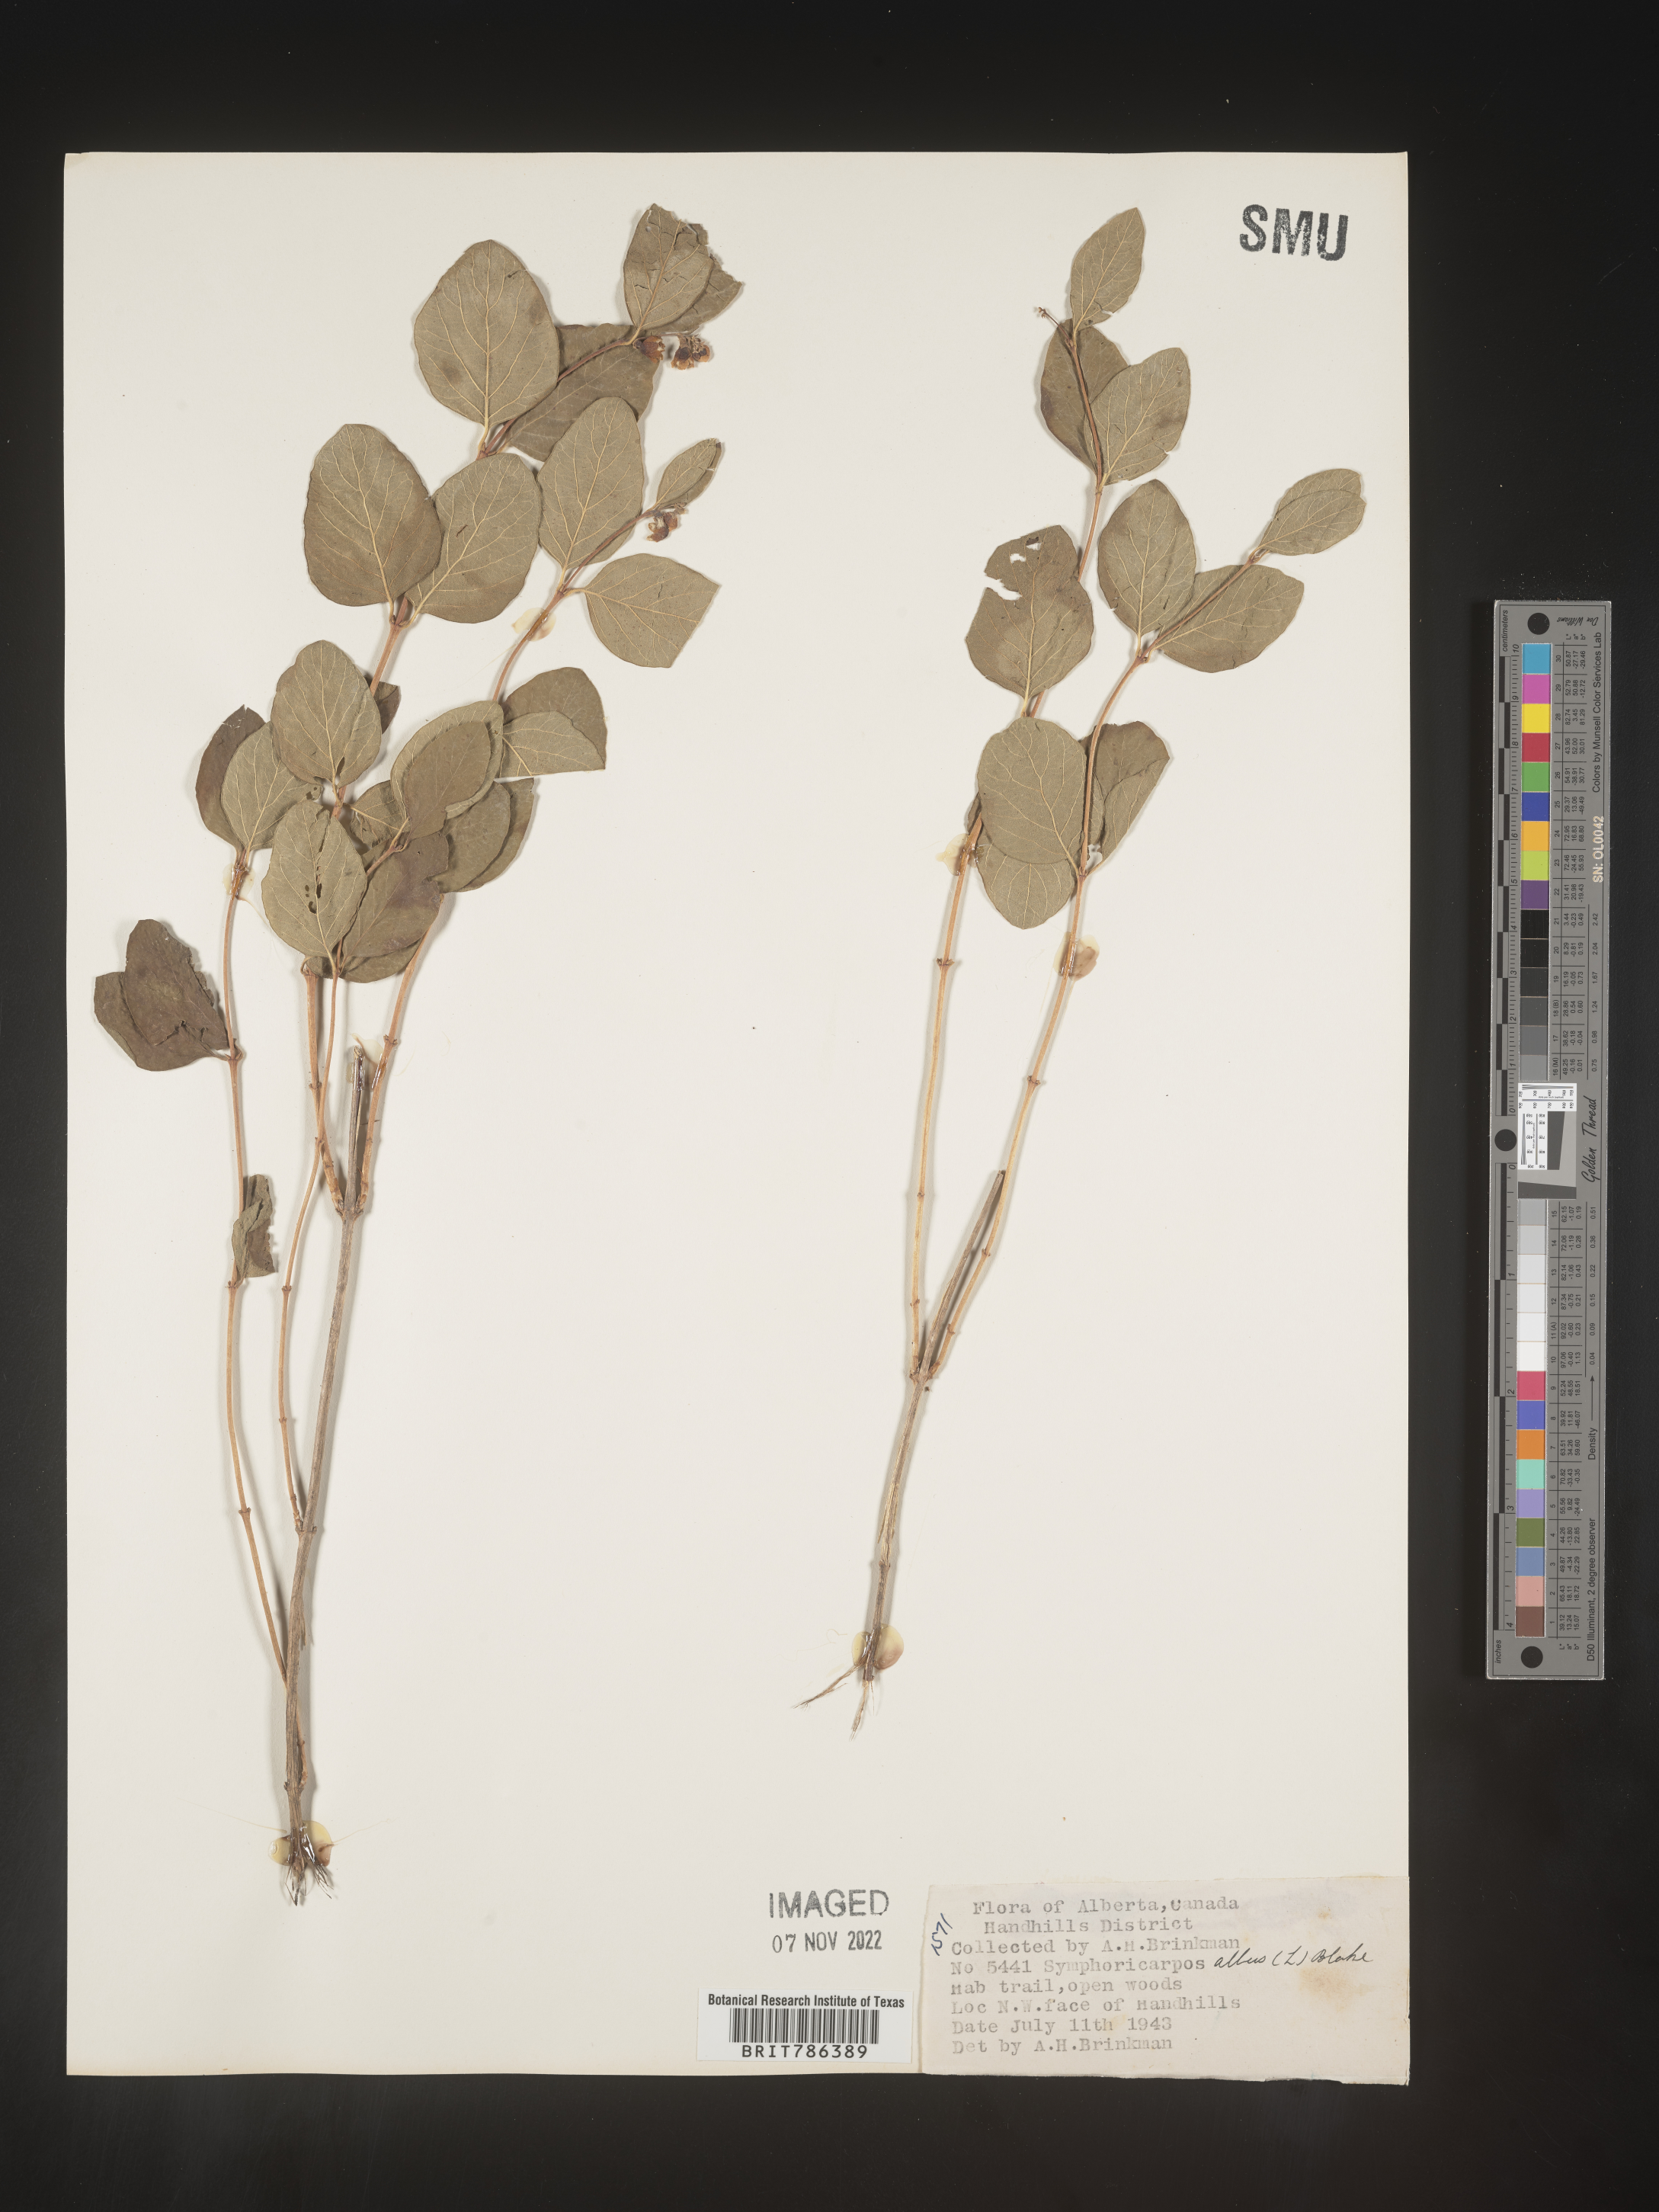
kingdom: Plantae
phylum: Tracheophyta
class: Magnoliopsida
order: Dipsacales
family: Caprifoliaceae
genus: Symphoricarpos
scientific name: Symphoricarpos albus
